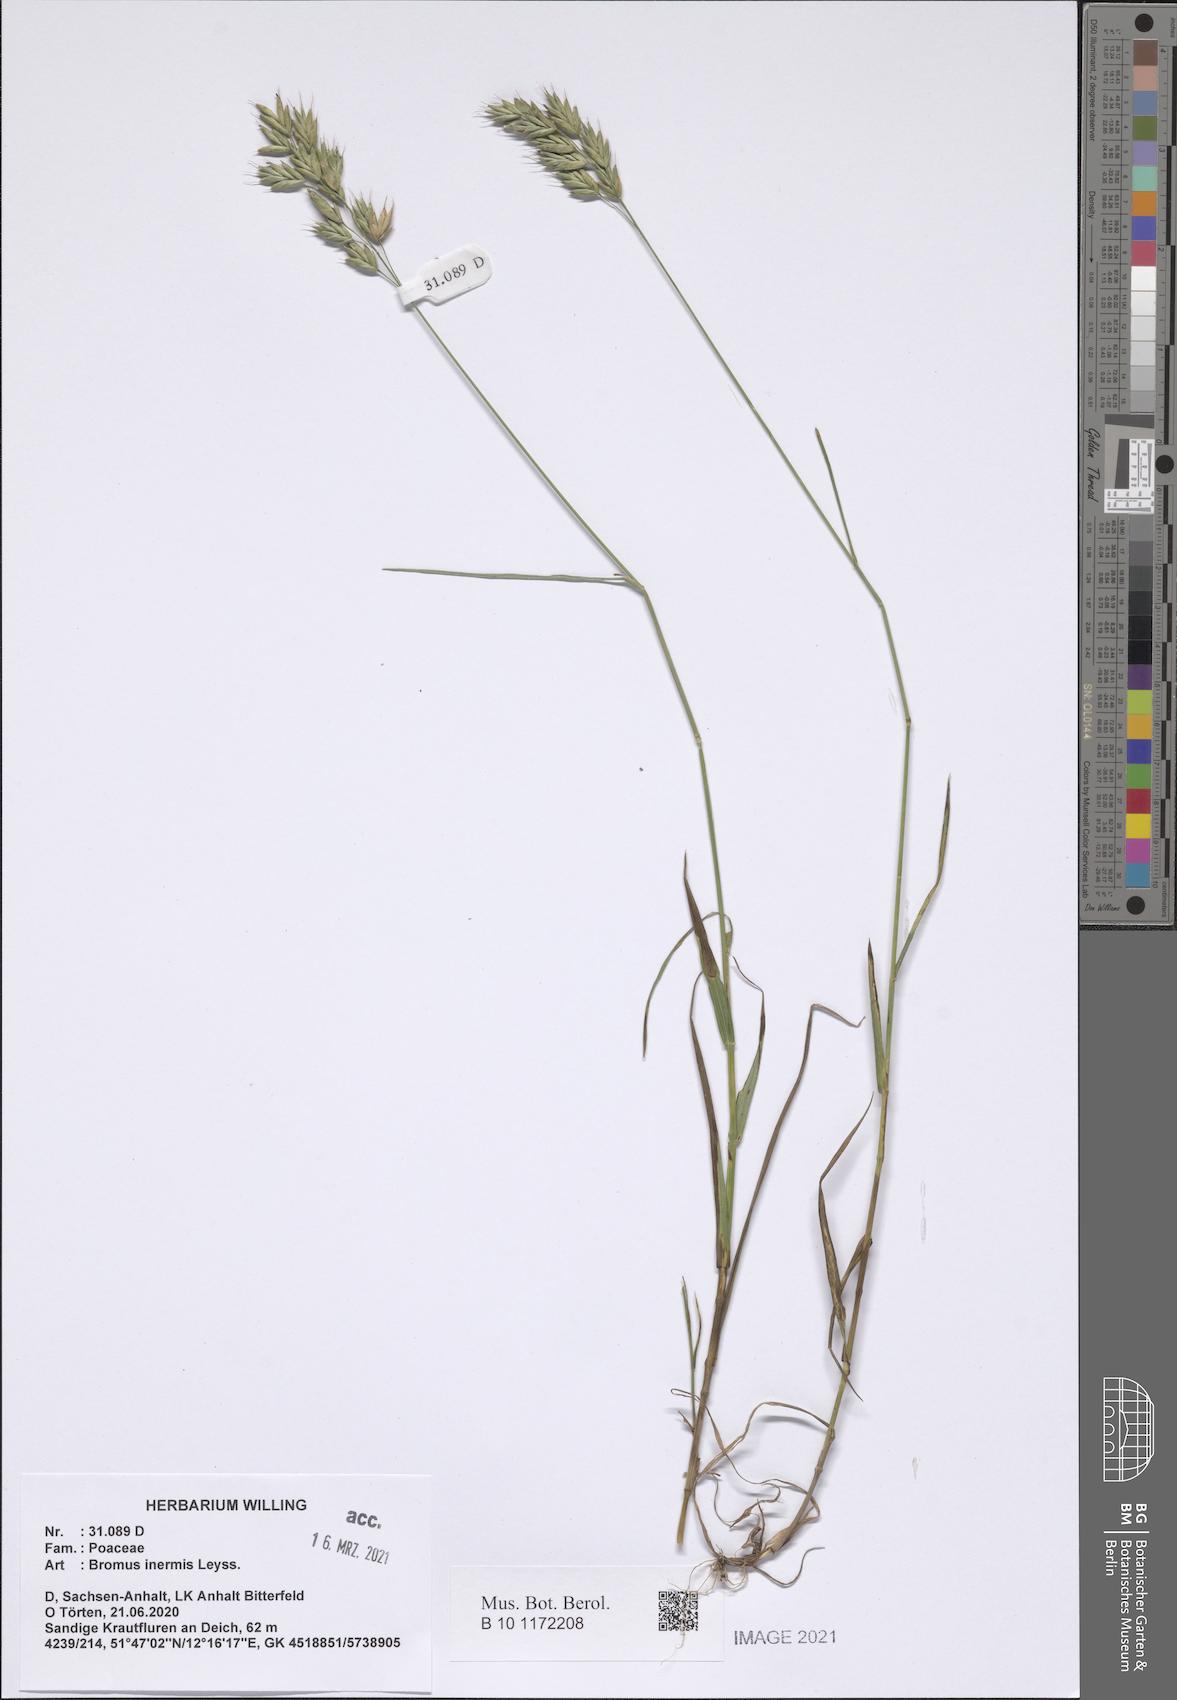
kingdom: Plantae
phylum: Tracheophyta
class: Liliopsida
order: Poales
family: Poaceae
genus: Bromus
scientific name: Bromus inermis
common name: Smooth brome
